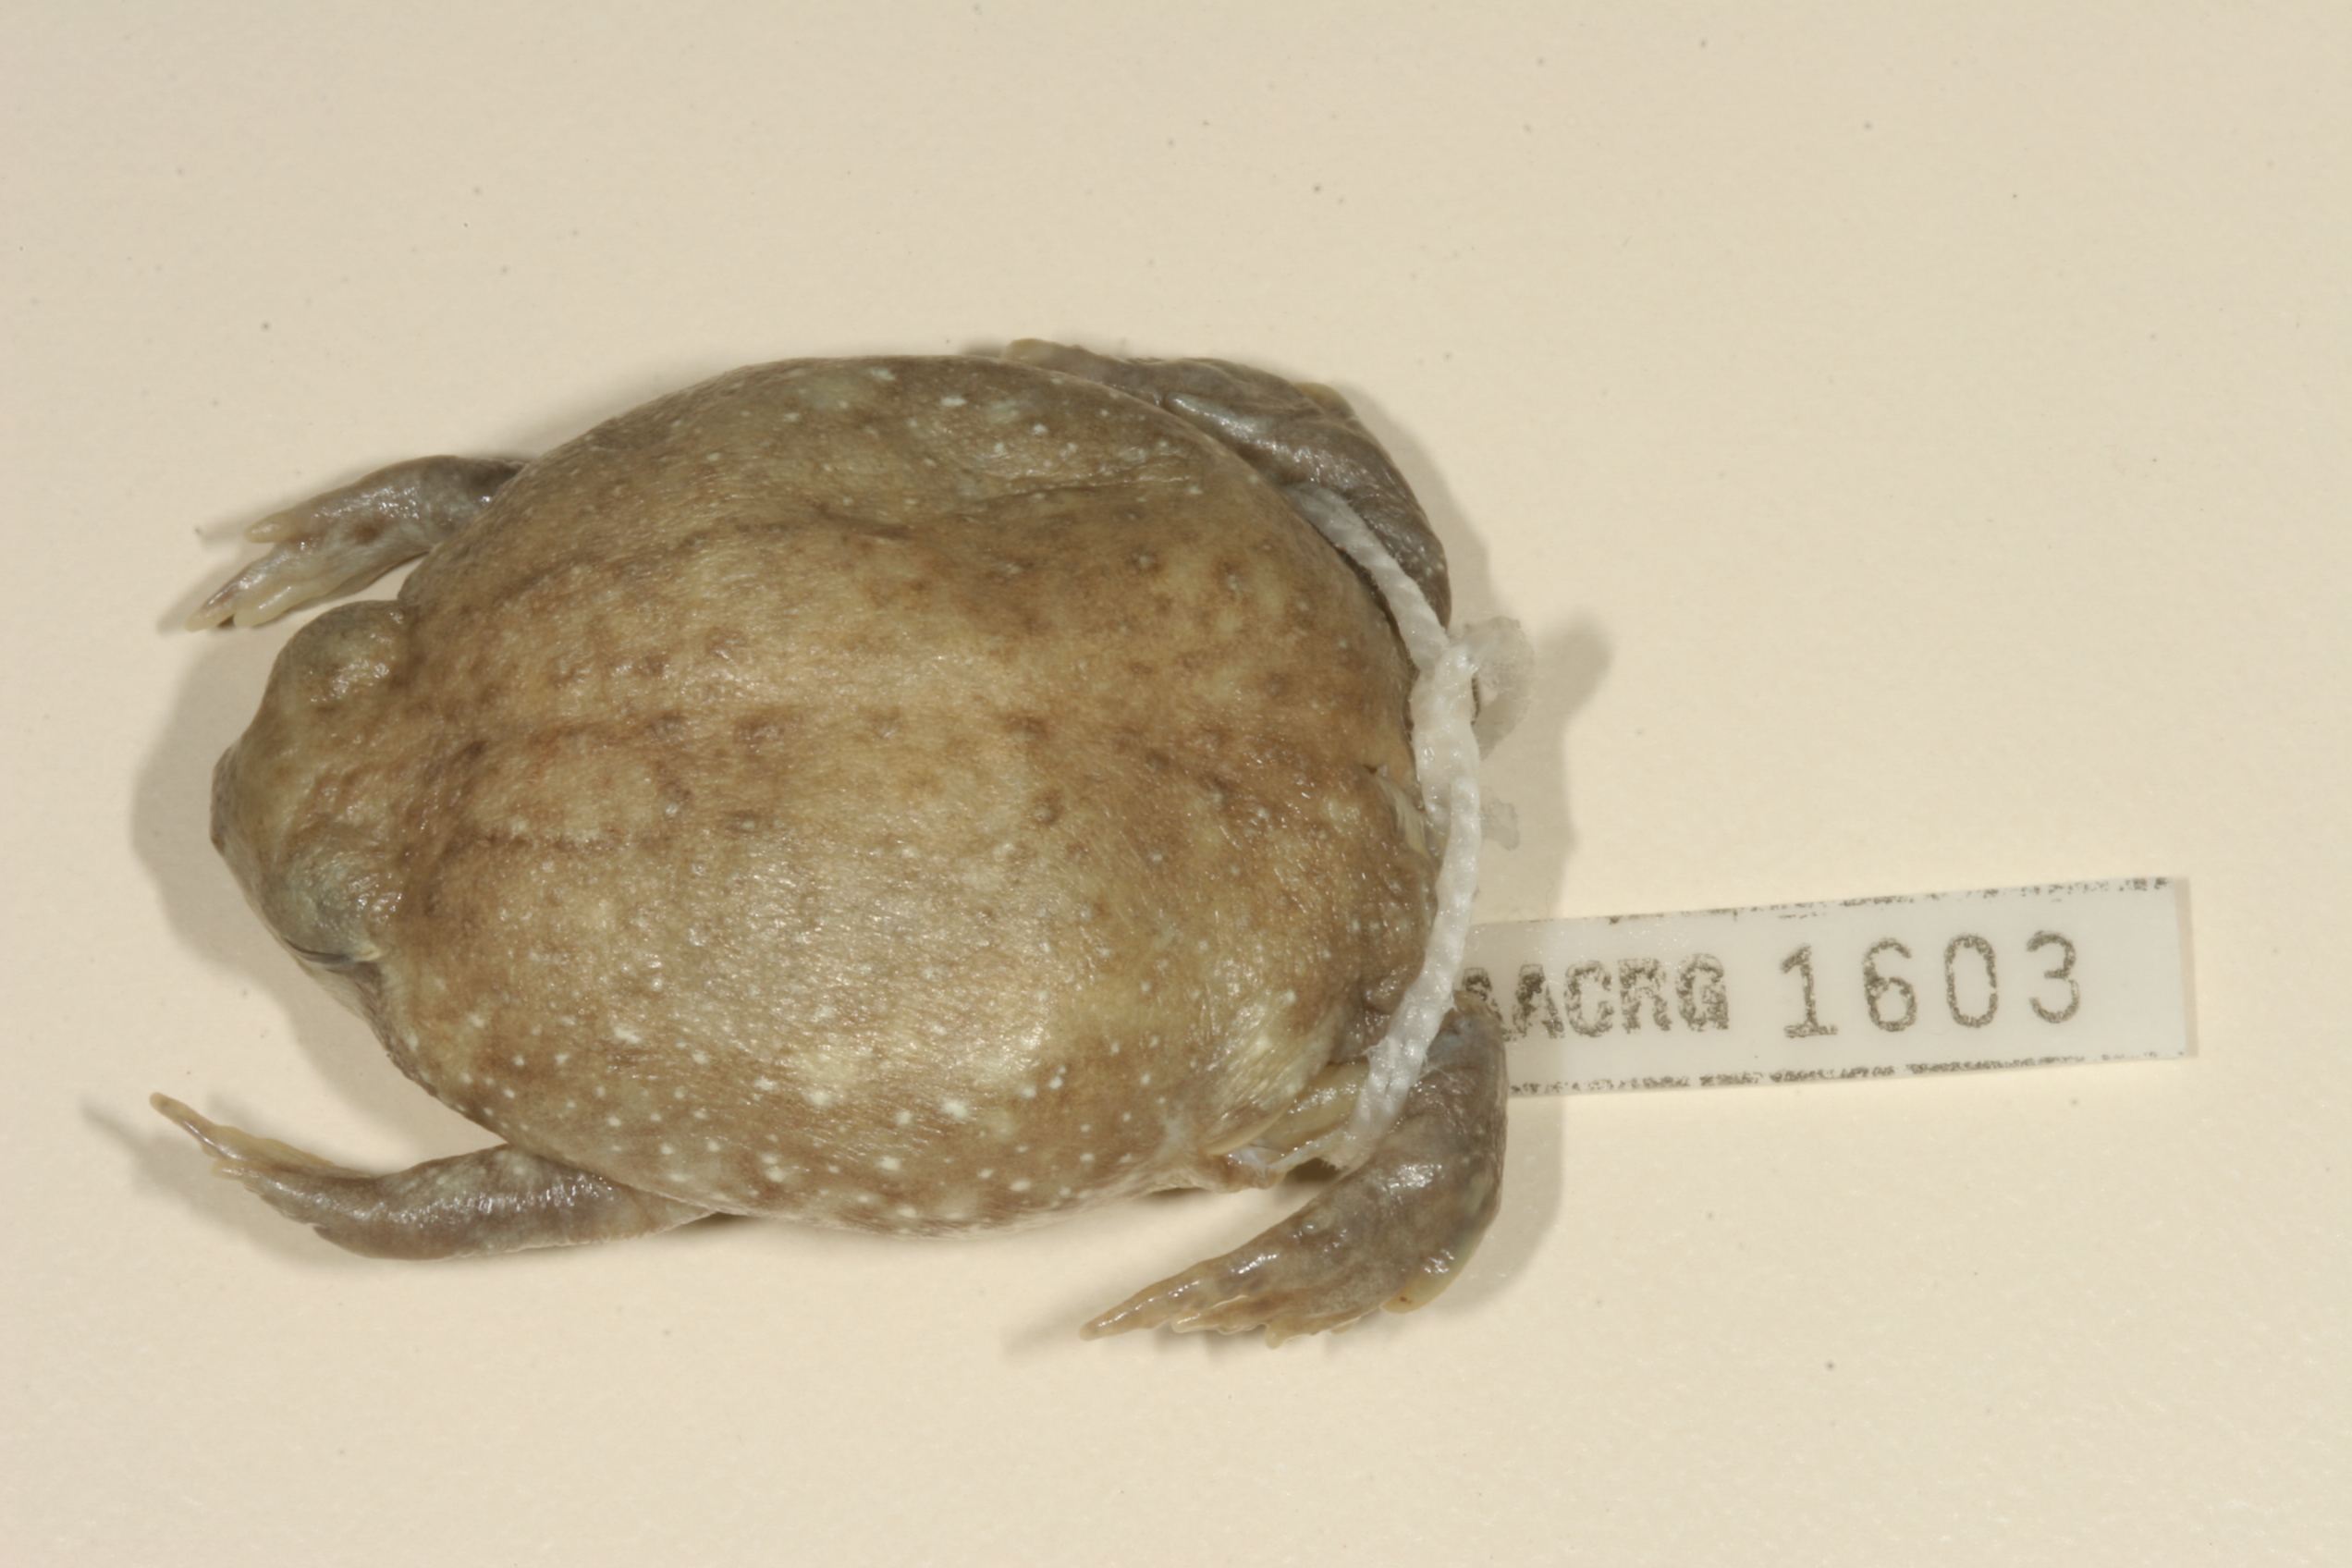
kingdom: Animalia
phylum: Chordata
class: Amphibia
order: Anura
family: Brevicipitidae
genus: Breviceps
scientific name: Breviceps adspersus
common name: Common rain frog
